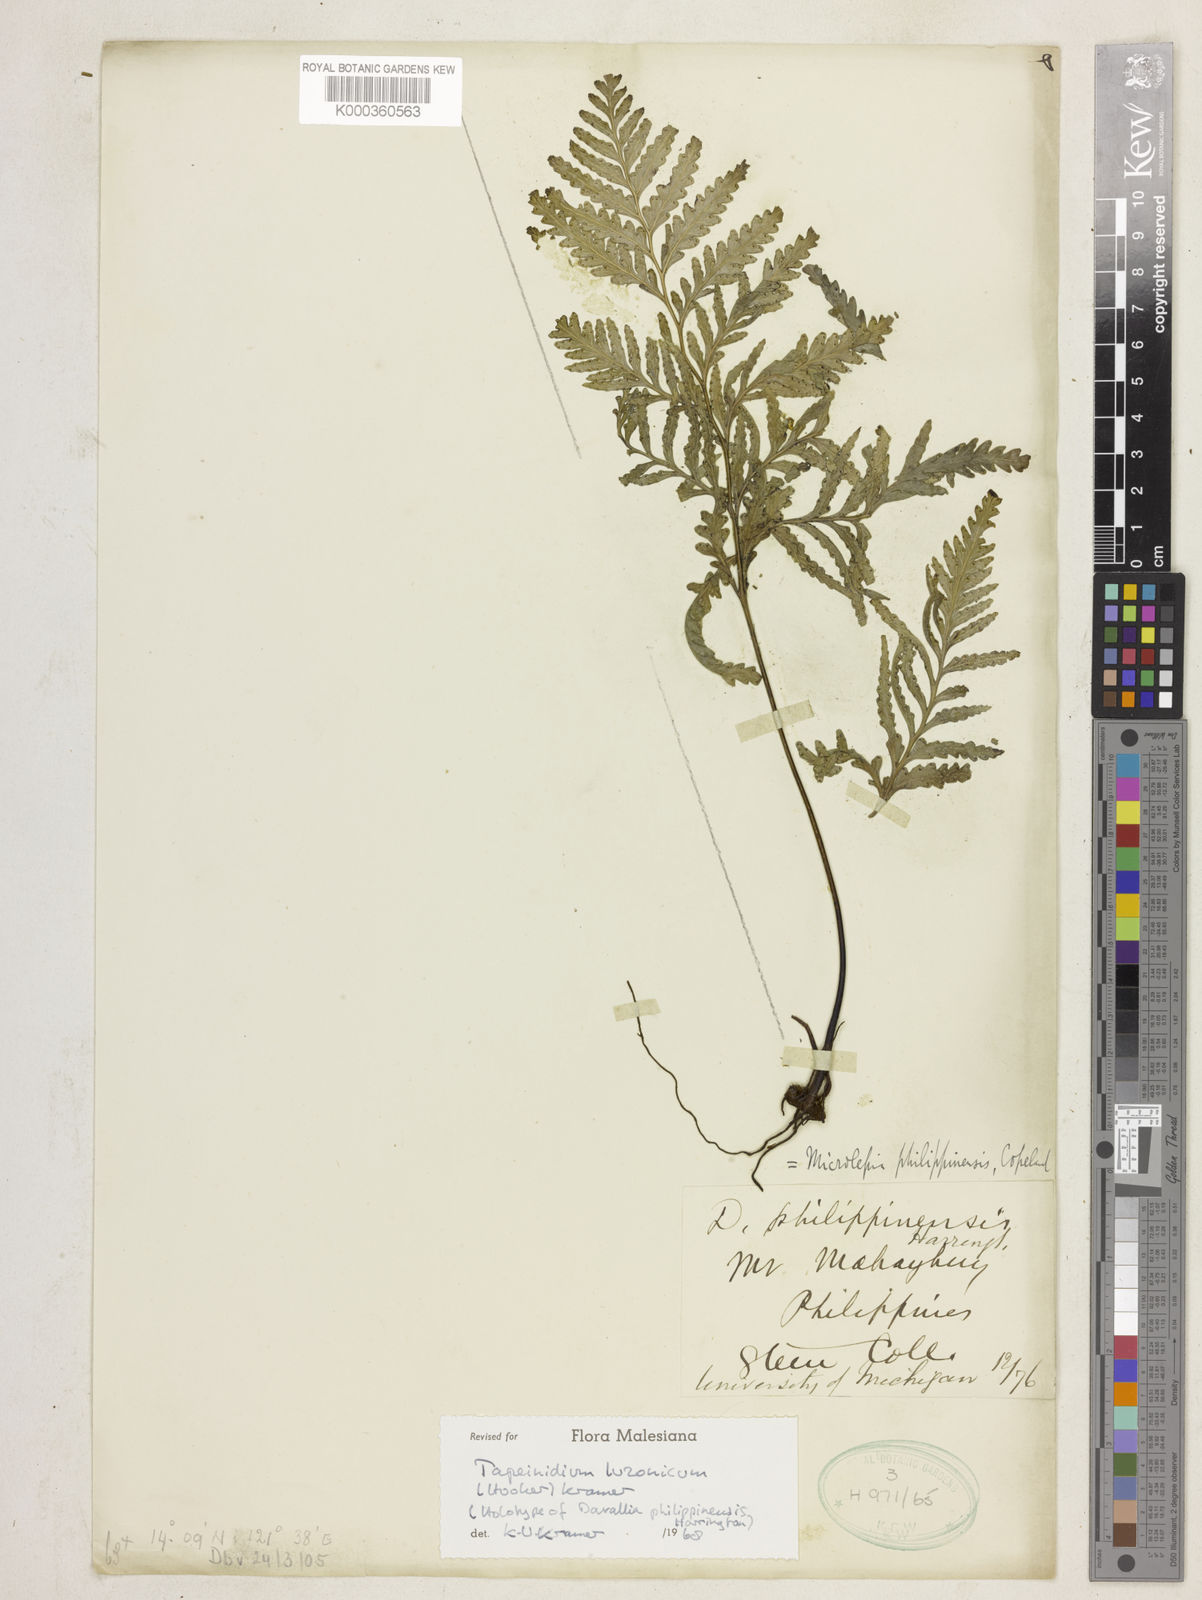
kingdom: Plantae
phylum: Tracheophyta
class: Polypodiopsida
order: Polypodiales
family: Lindsaeaceae
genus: Tapeinidium
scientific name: Tapeinidium luzonicum
